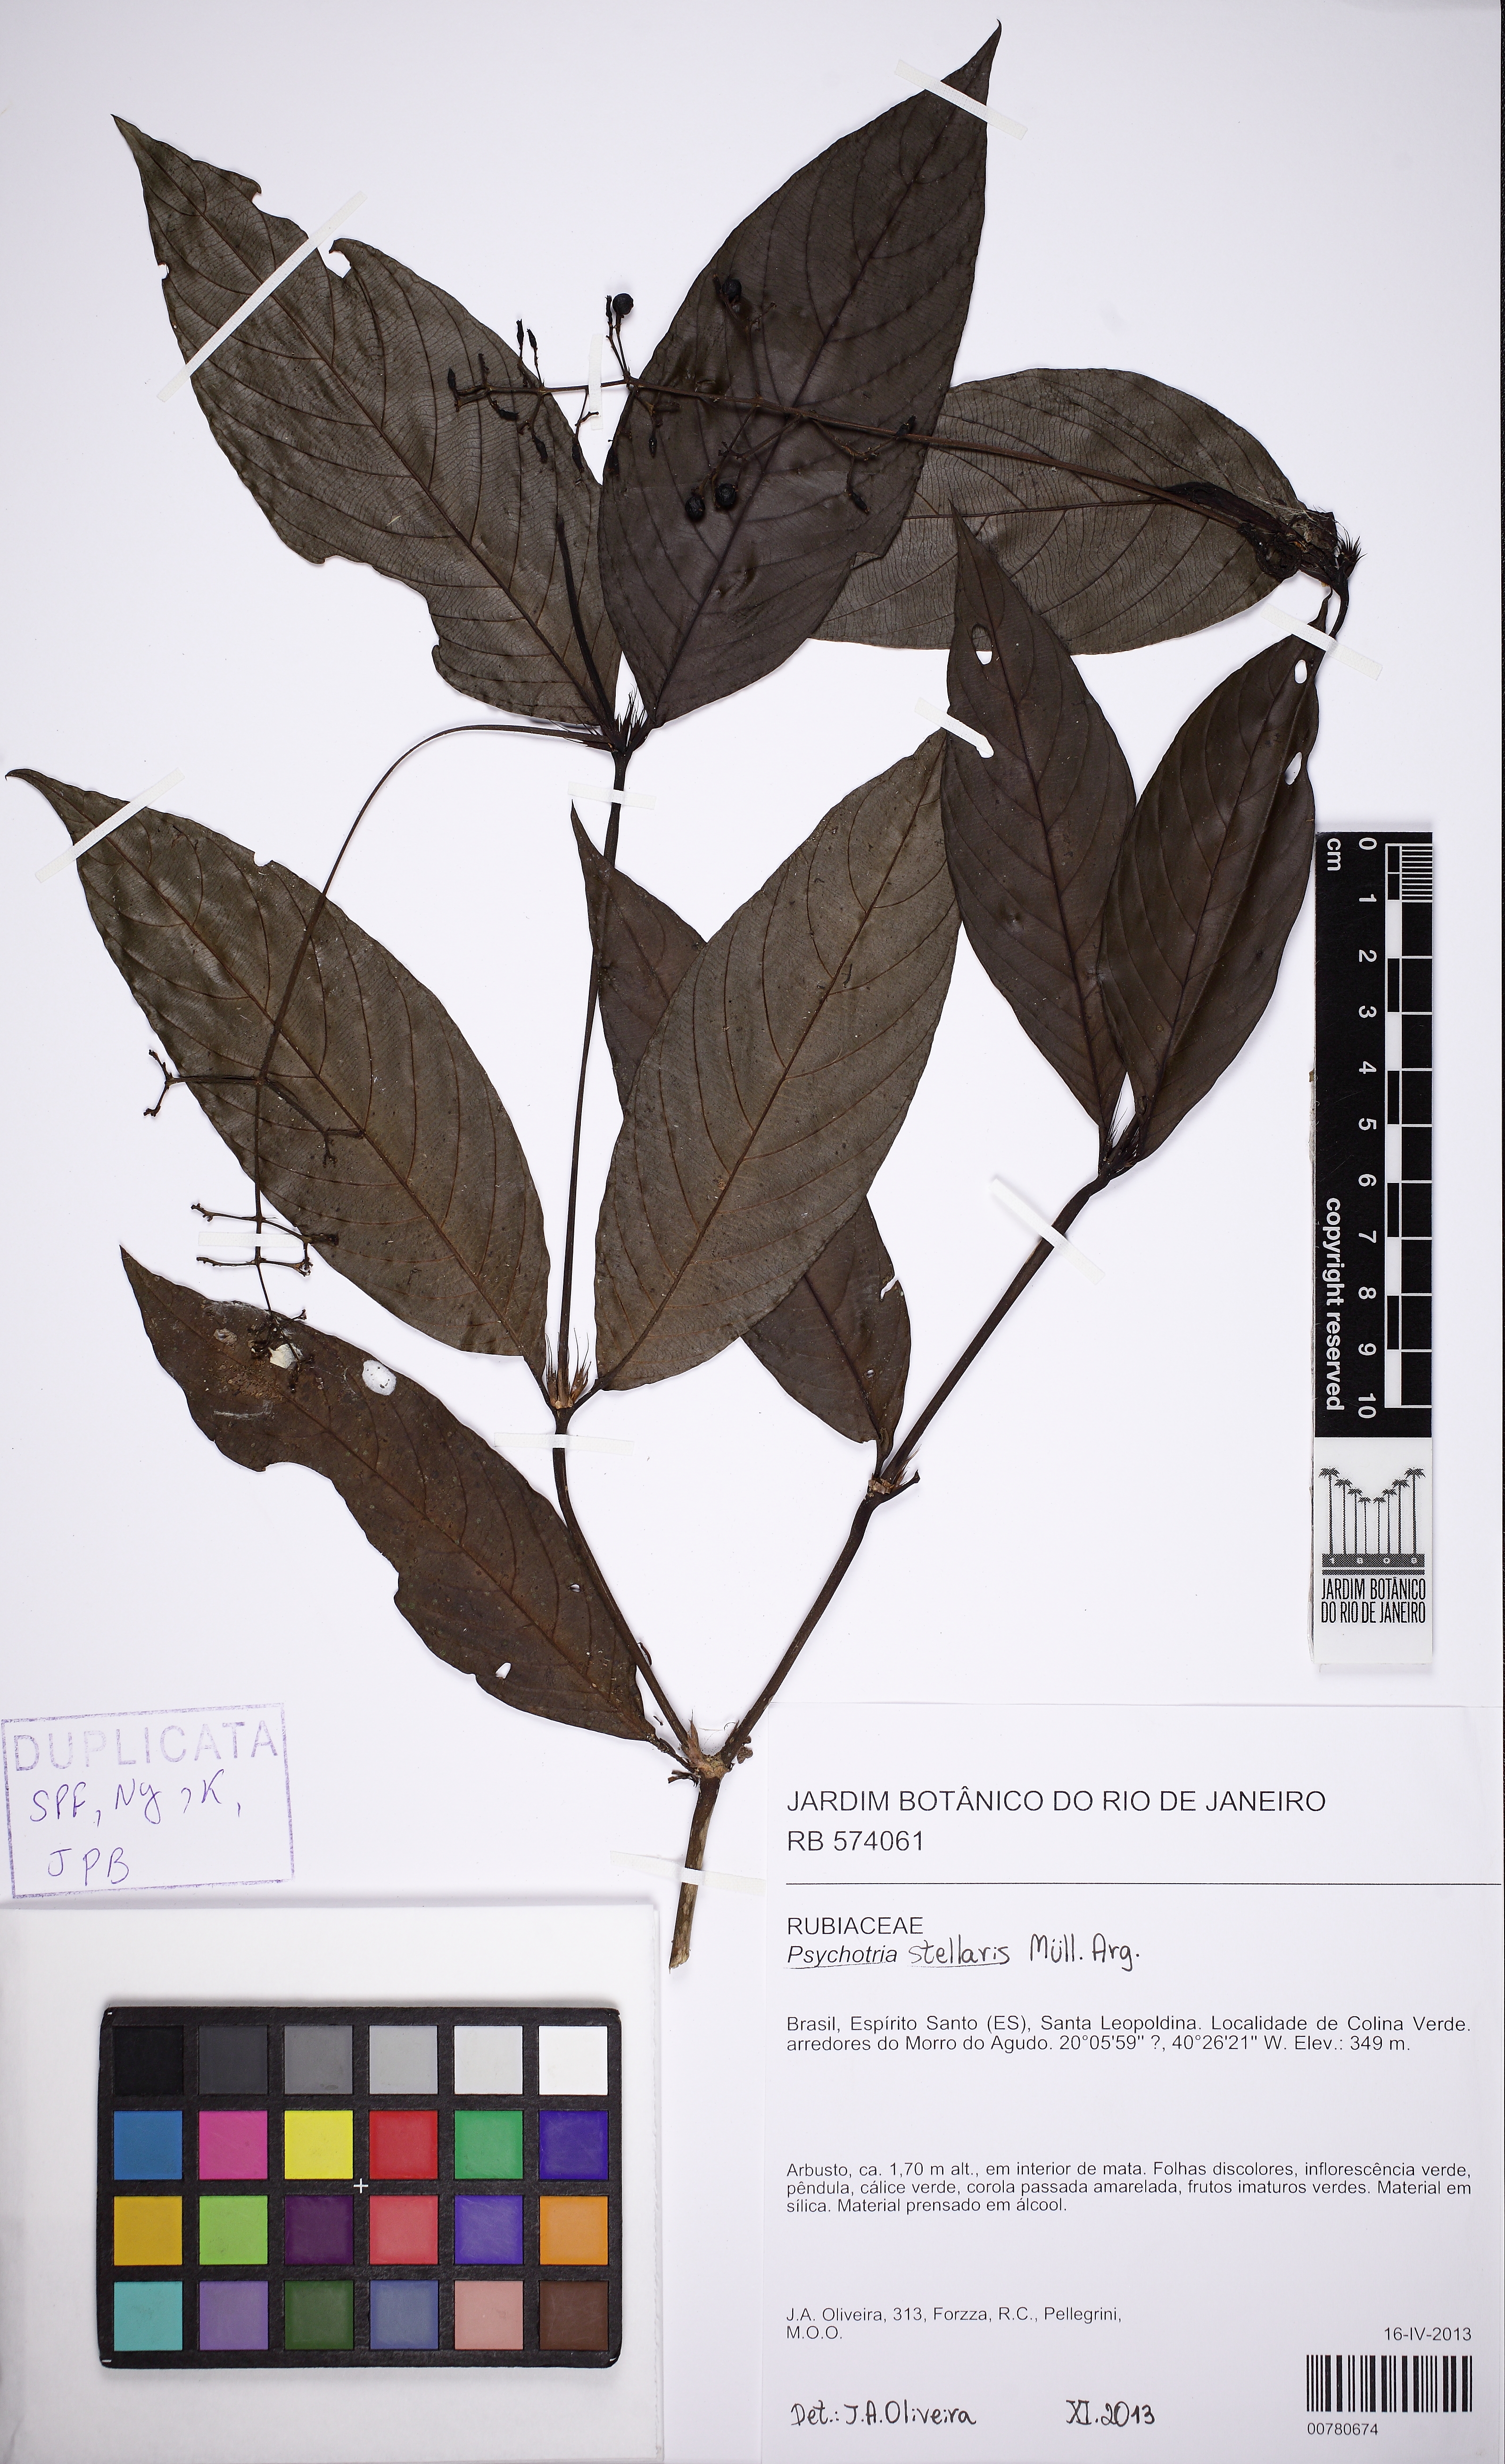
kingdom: Plantae
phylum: Tracheophyta
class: Magnoliopsida
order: Gentianales
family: Rubiaceae
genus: Palicourea
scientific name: Palicourea octocuspis
